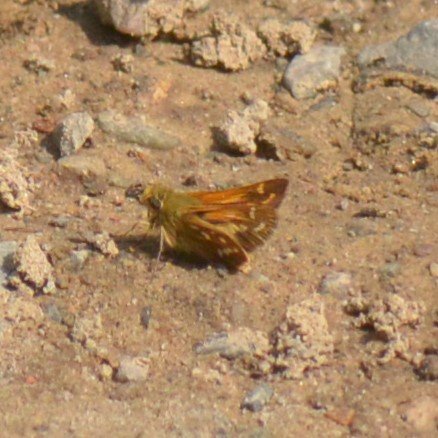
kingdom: Animalia
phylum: Arthropoda
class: Insecta
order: Lepidoptera
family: Hesperiidae
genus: Hesperia
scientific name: Hesperia comma
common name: Common Branded Skipper
